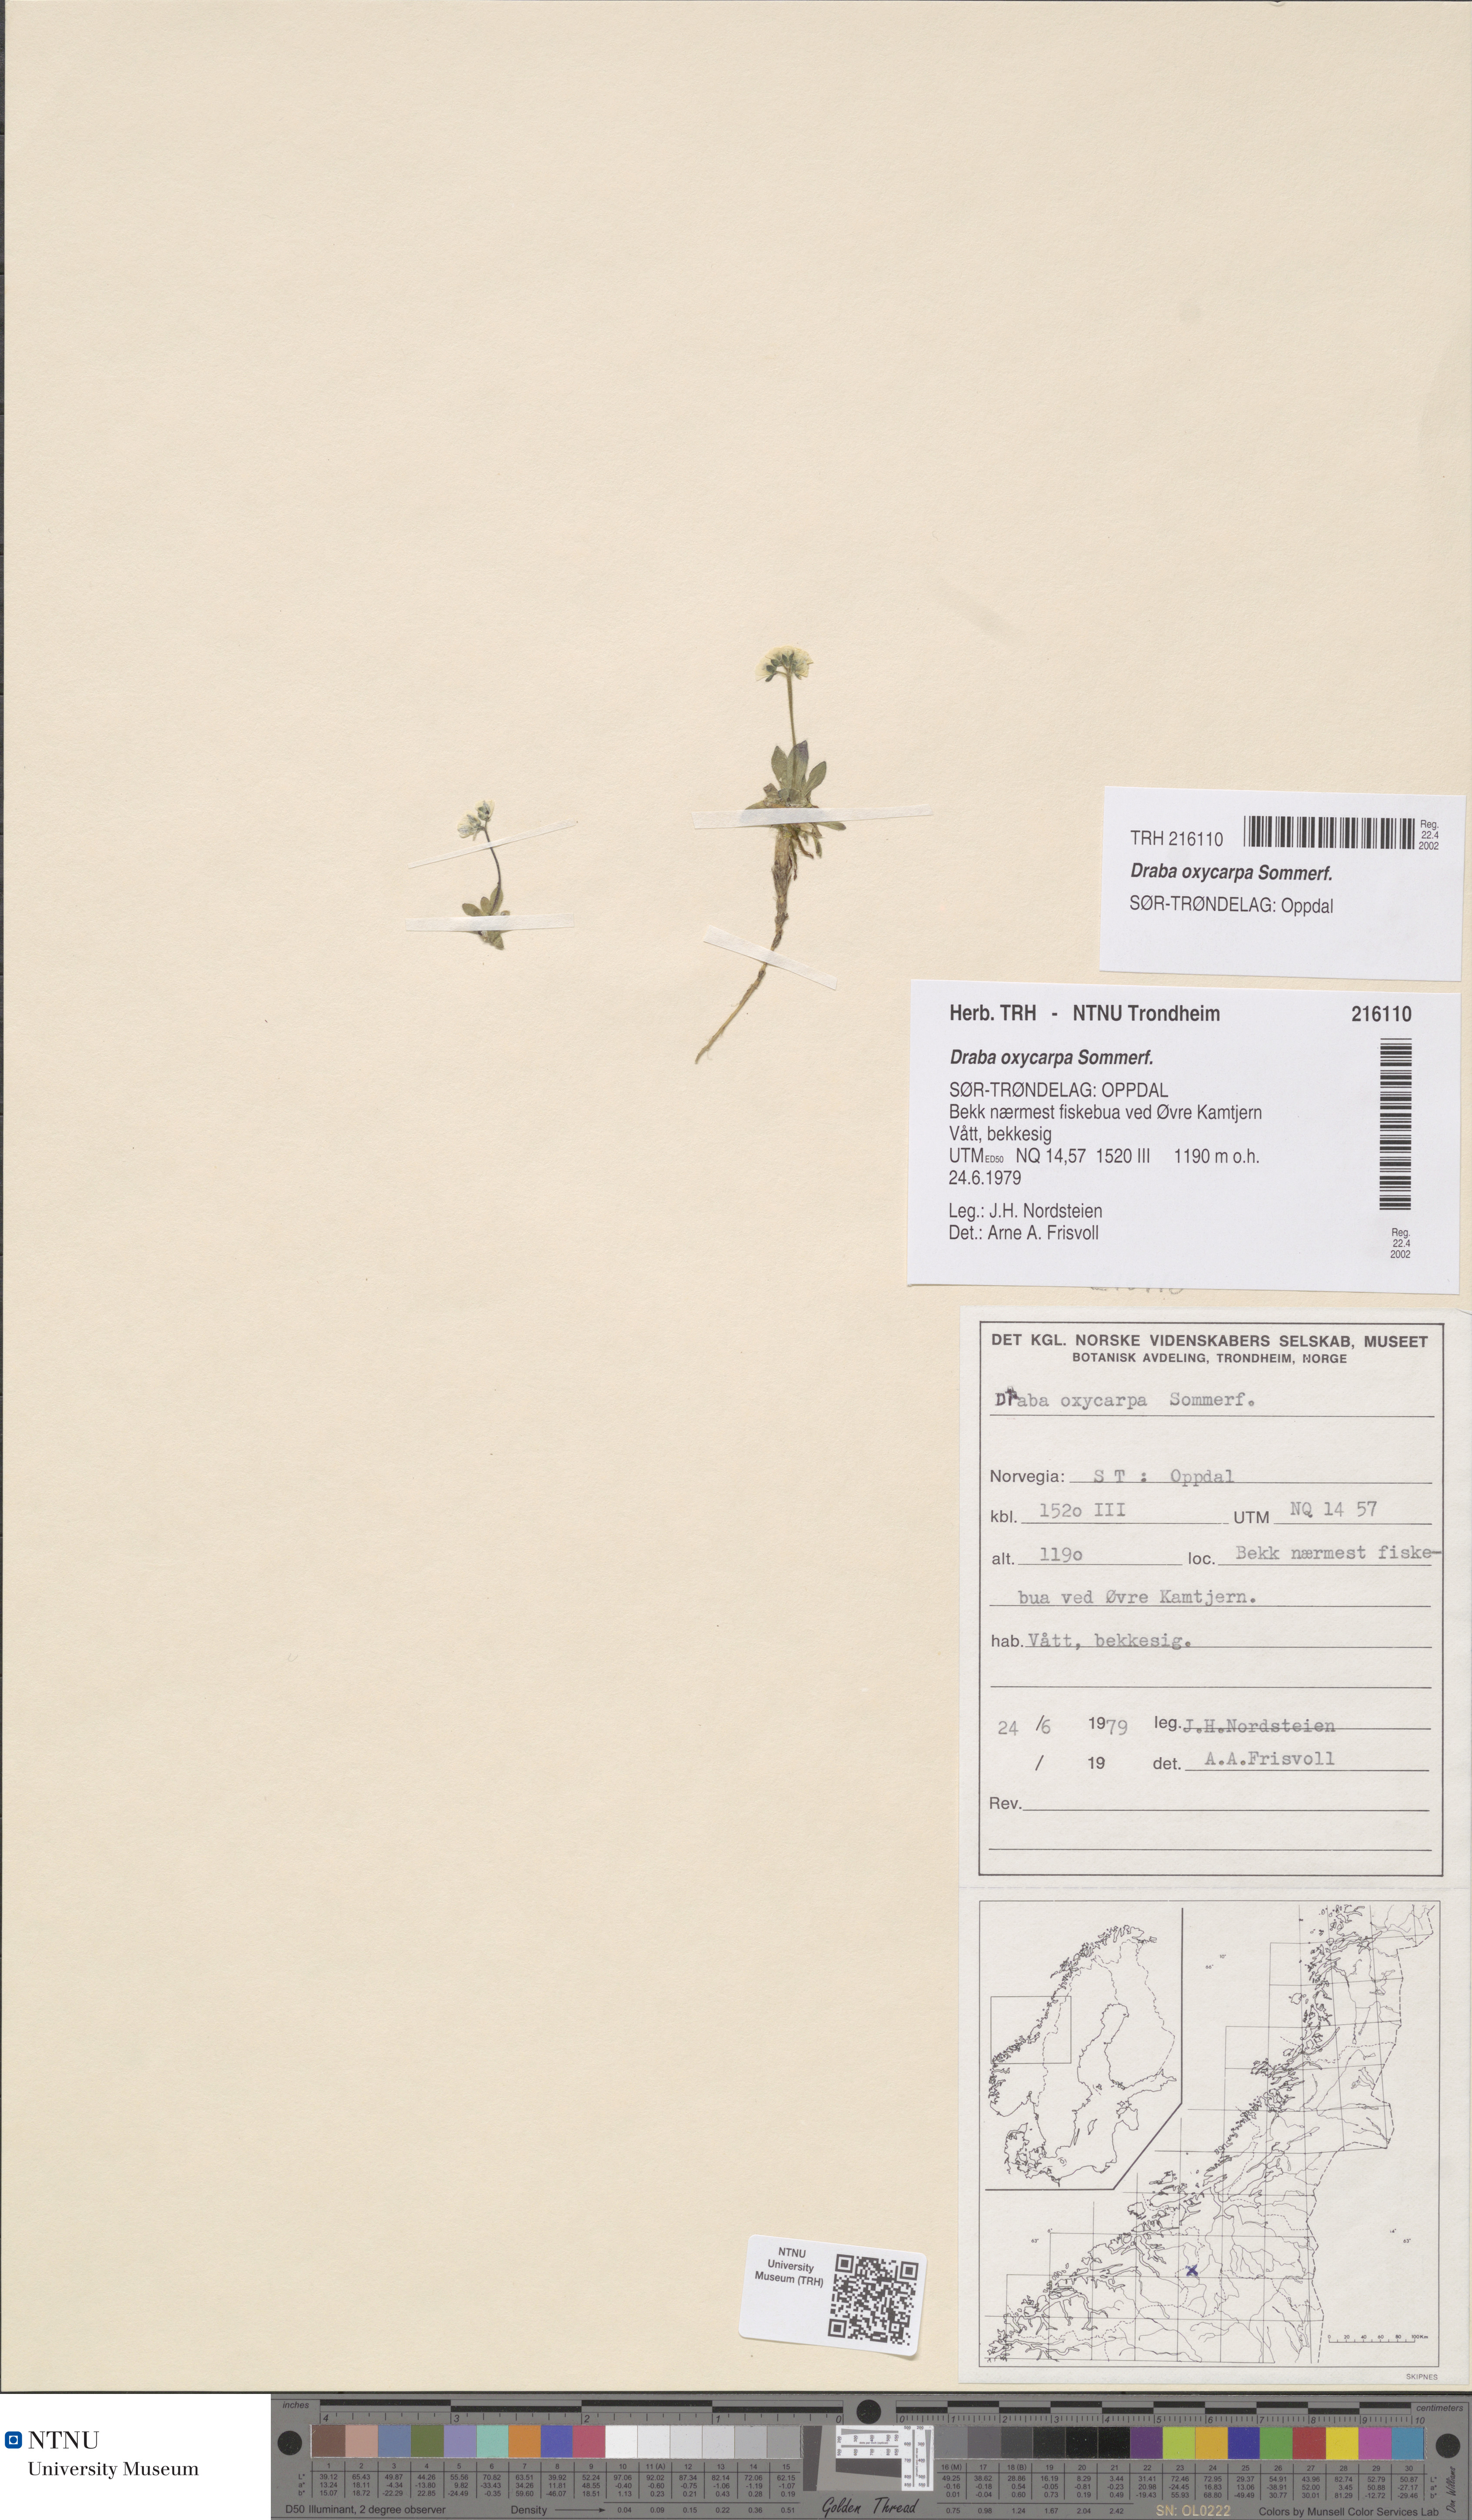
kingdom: Plantae
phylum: Tracheophyta
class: Magnoliopsida
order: Brassicales
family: Brassicaceae
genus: Draba
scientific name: Draba oxycarpa
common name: Sharp-fruited whitlow-grass
